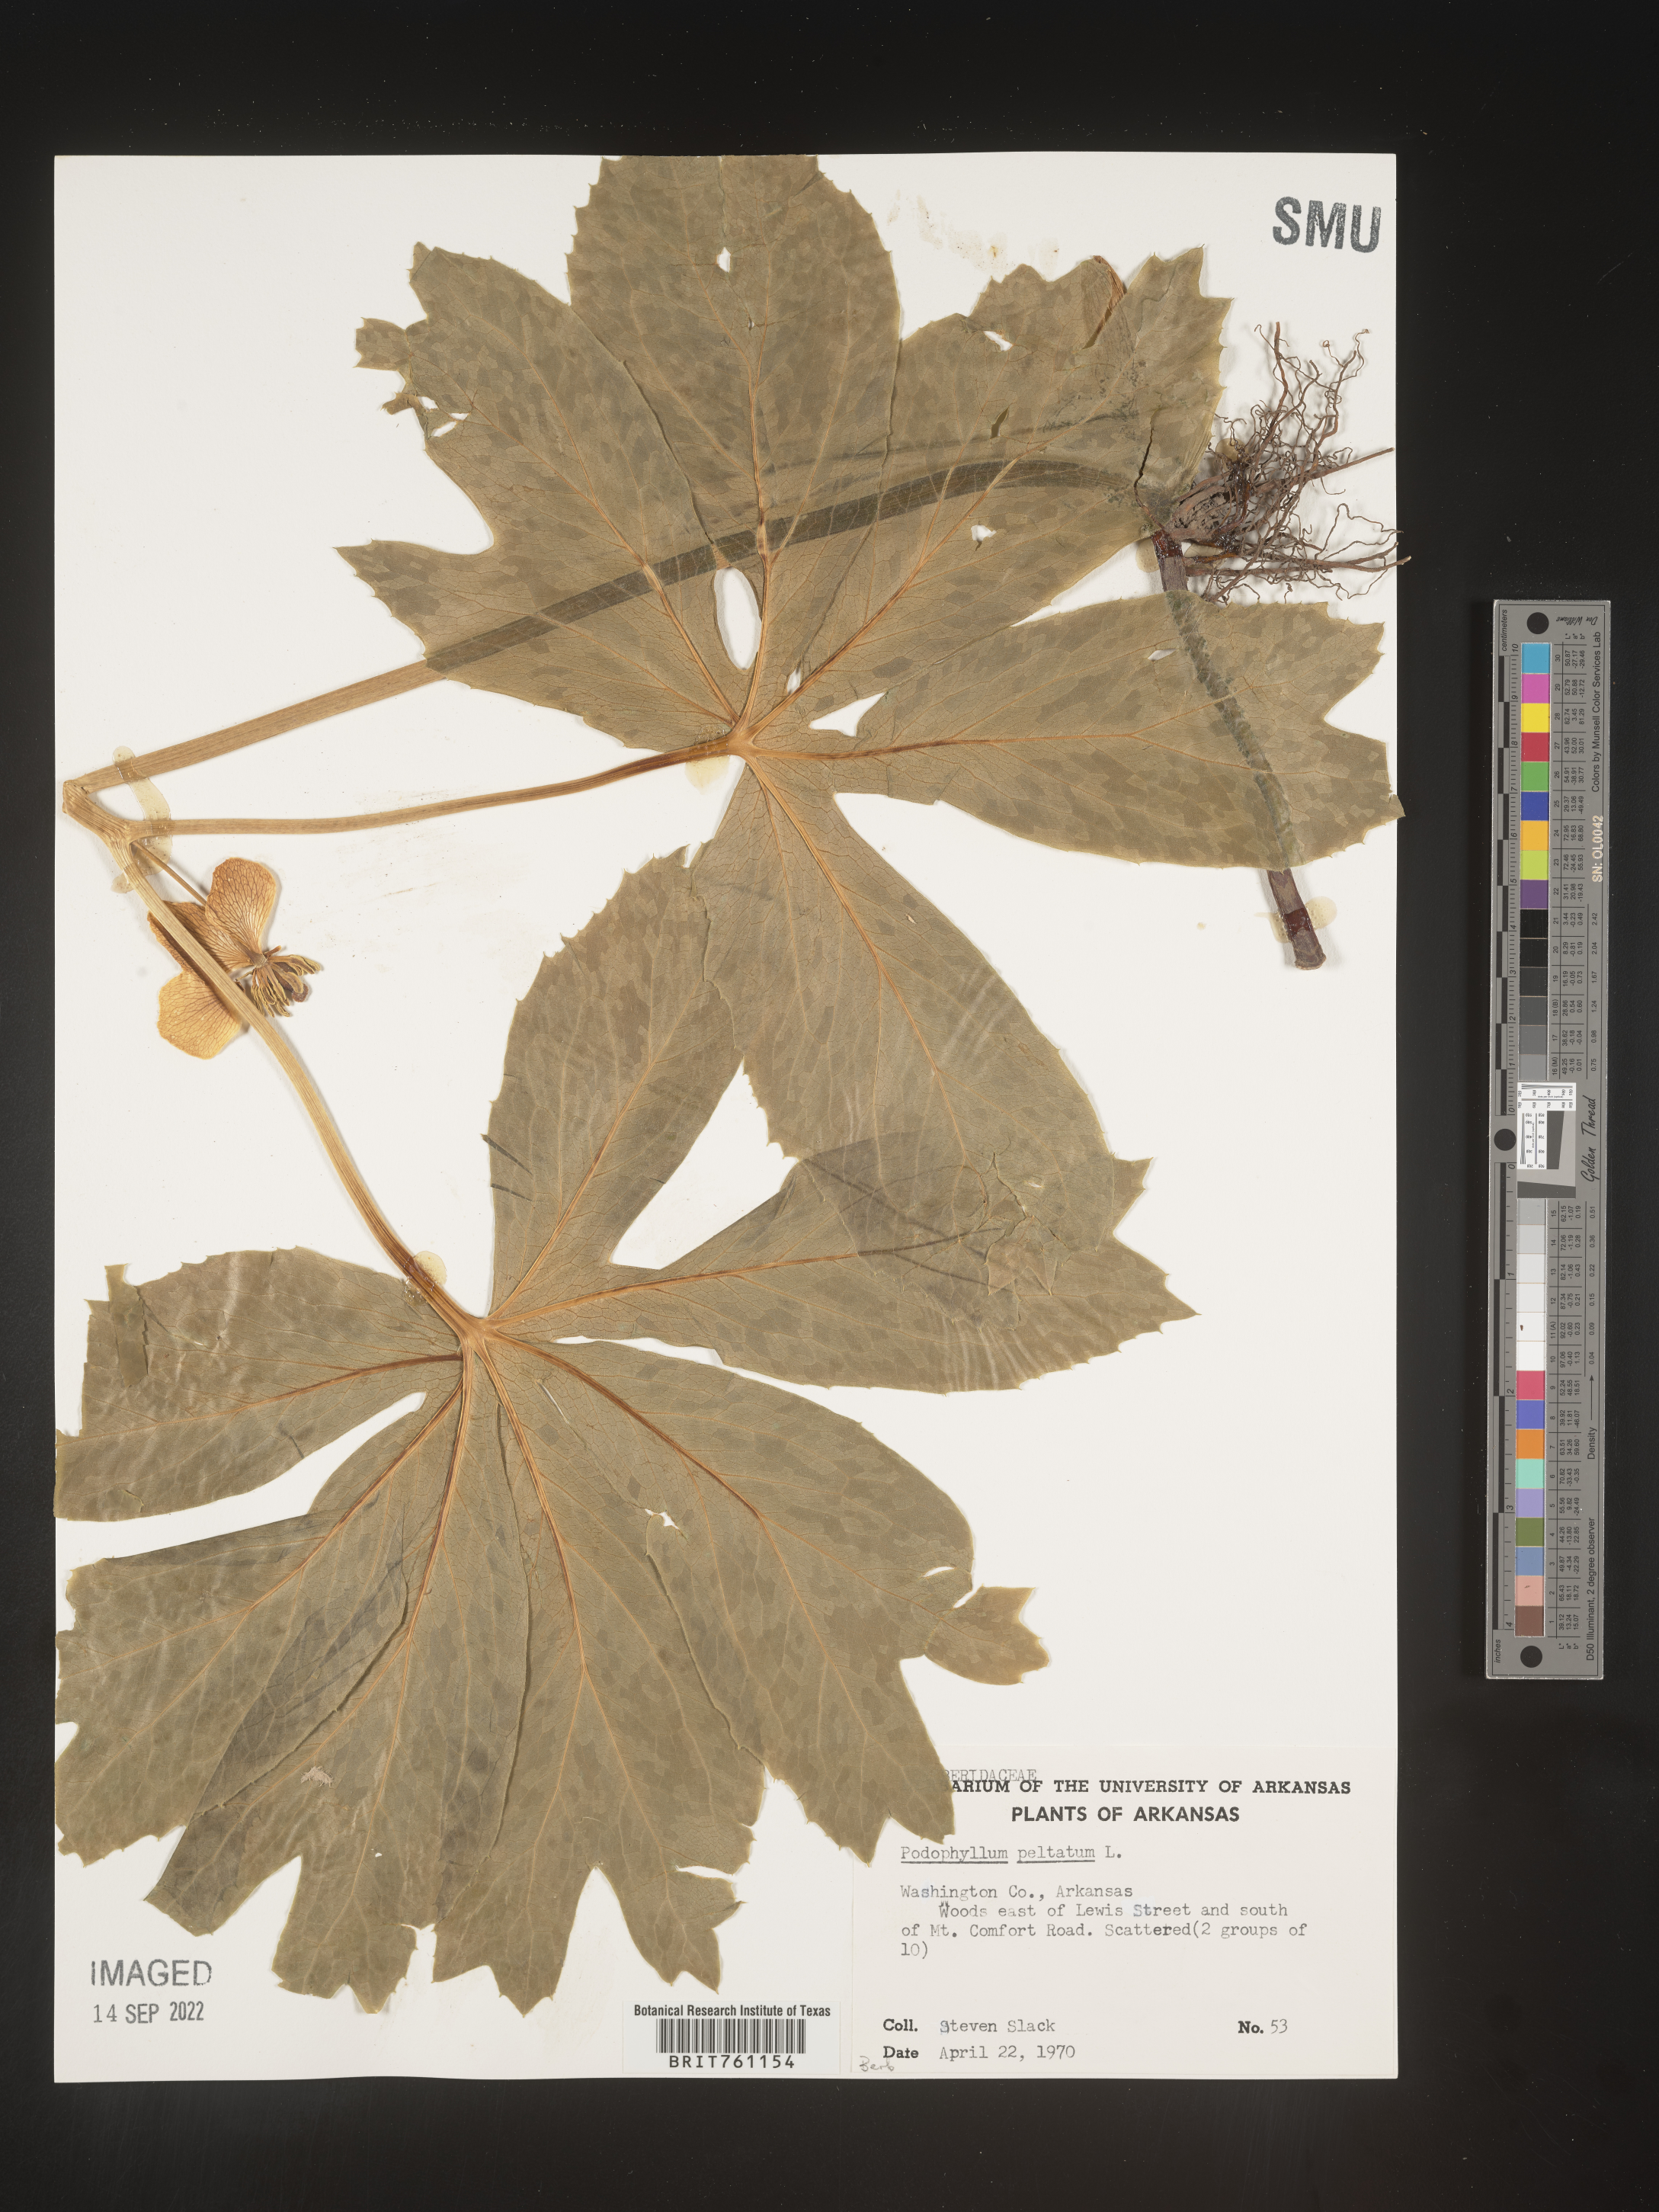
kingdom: Plantae
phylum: Tracheophyta
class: Magnoliopsida
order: Ranunculales
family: Berberidaceae
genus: Podophyllum
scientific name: Podophyllum peltatum
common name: Wild mandrake
